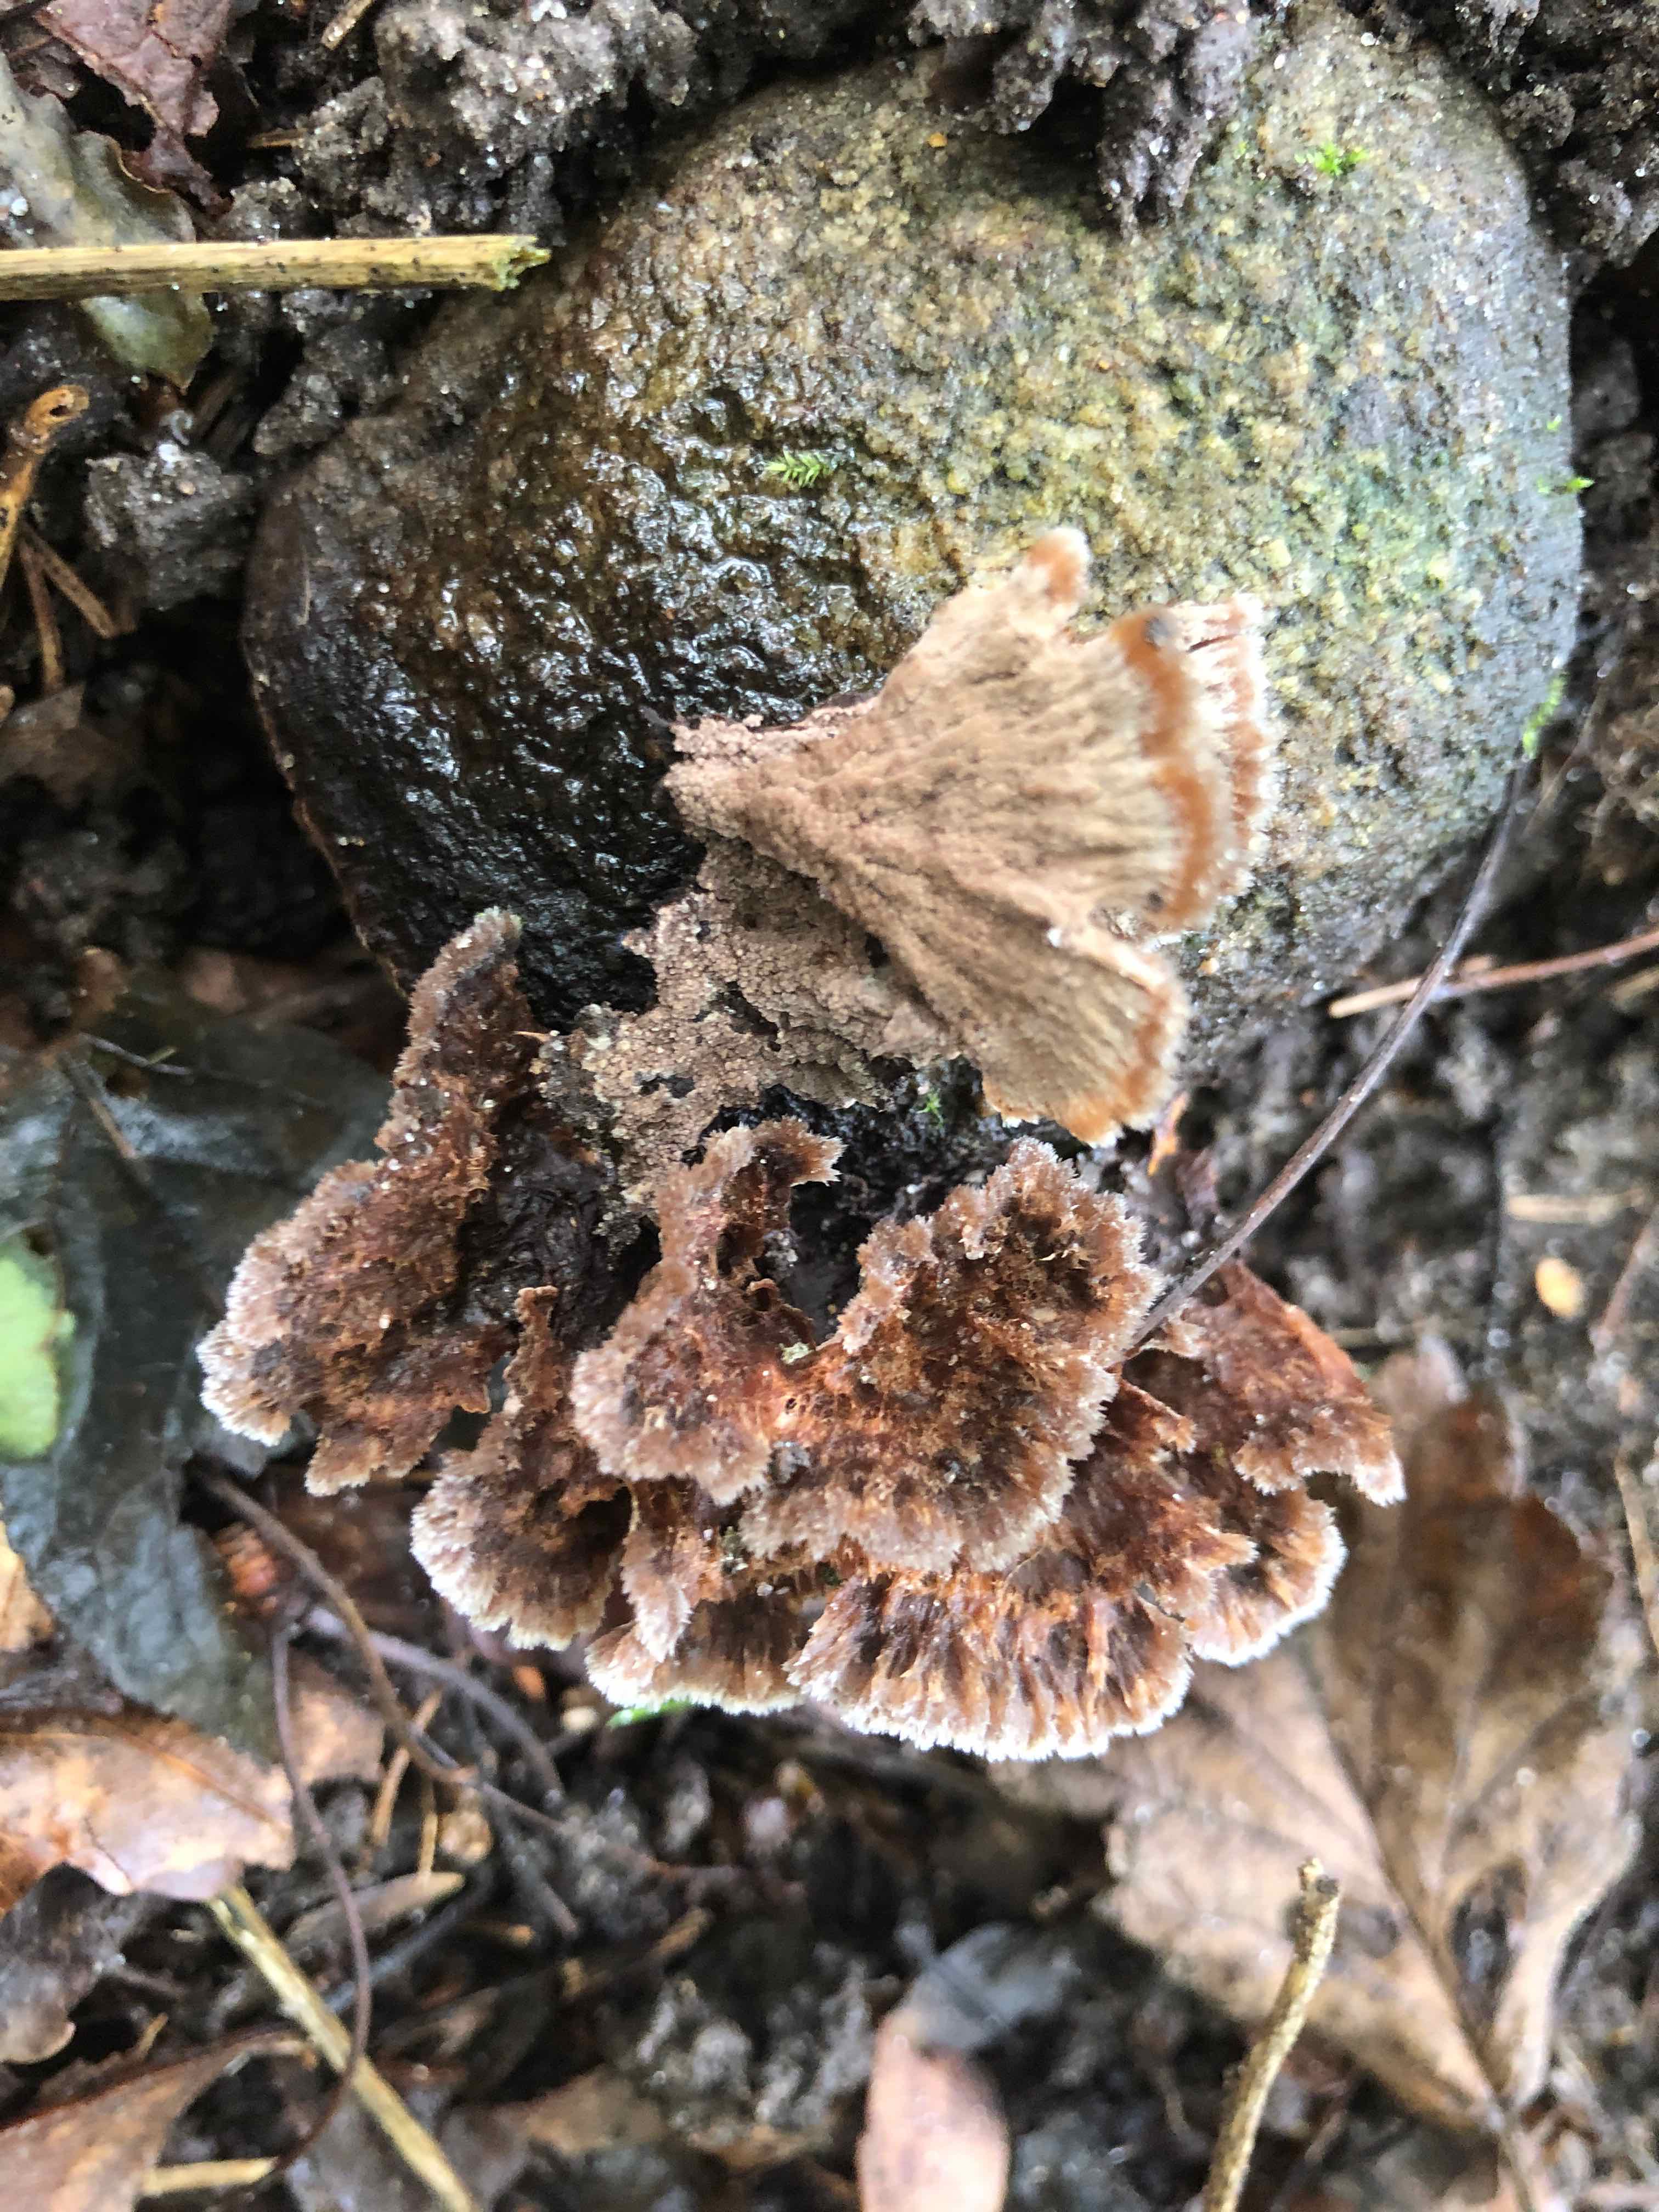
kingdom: Fungi
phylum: Basidiomycota
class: Agaricomycetes
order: Thelephorales
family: Thelephoraceae
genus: Thelephora
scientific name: Thelephora terrestris
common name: fliget frynsesvamp
